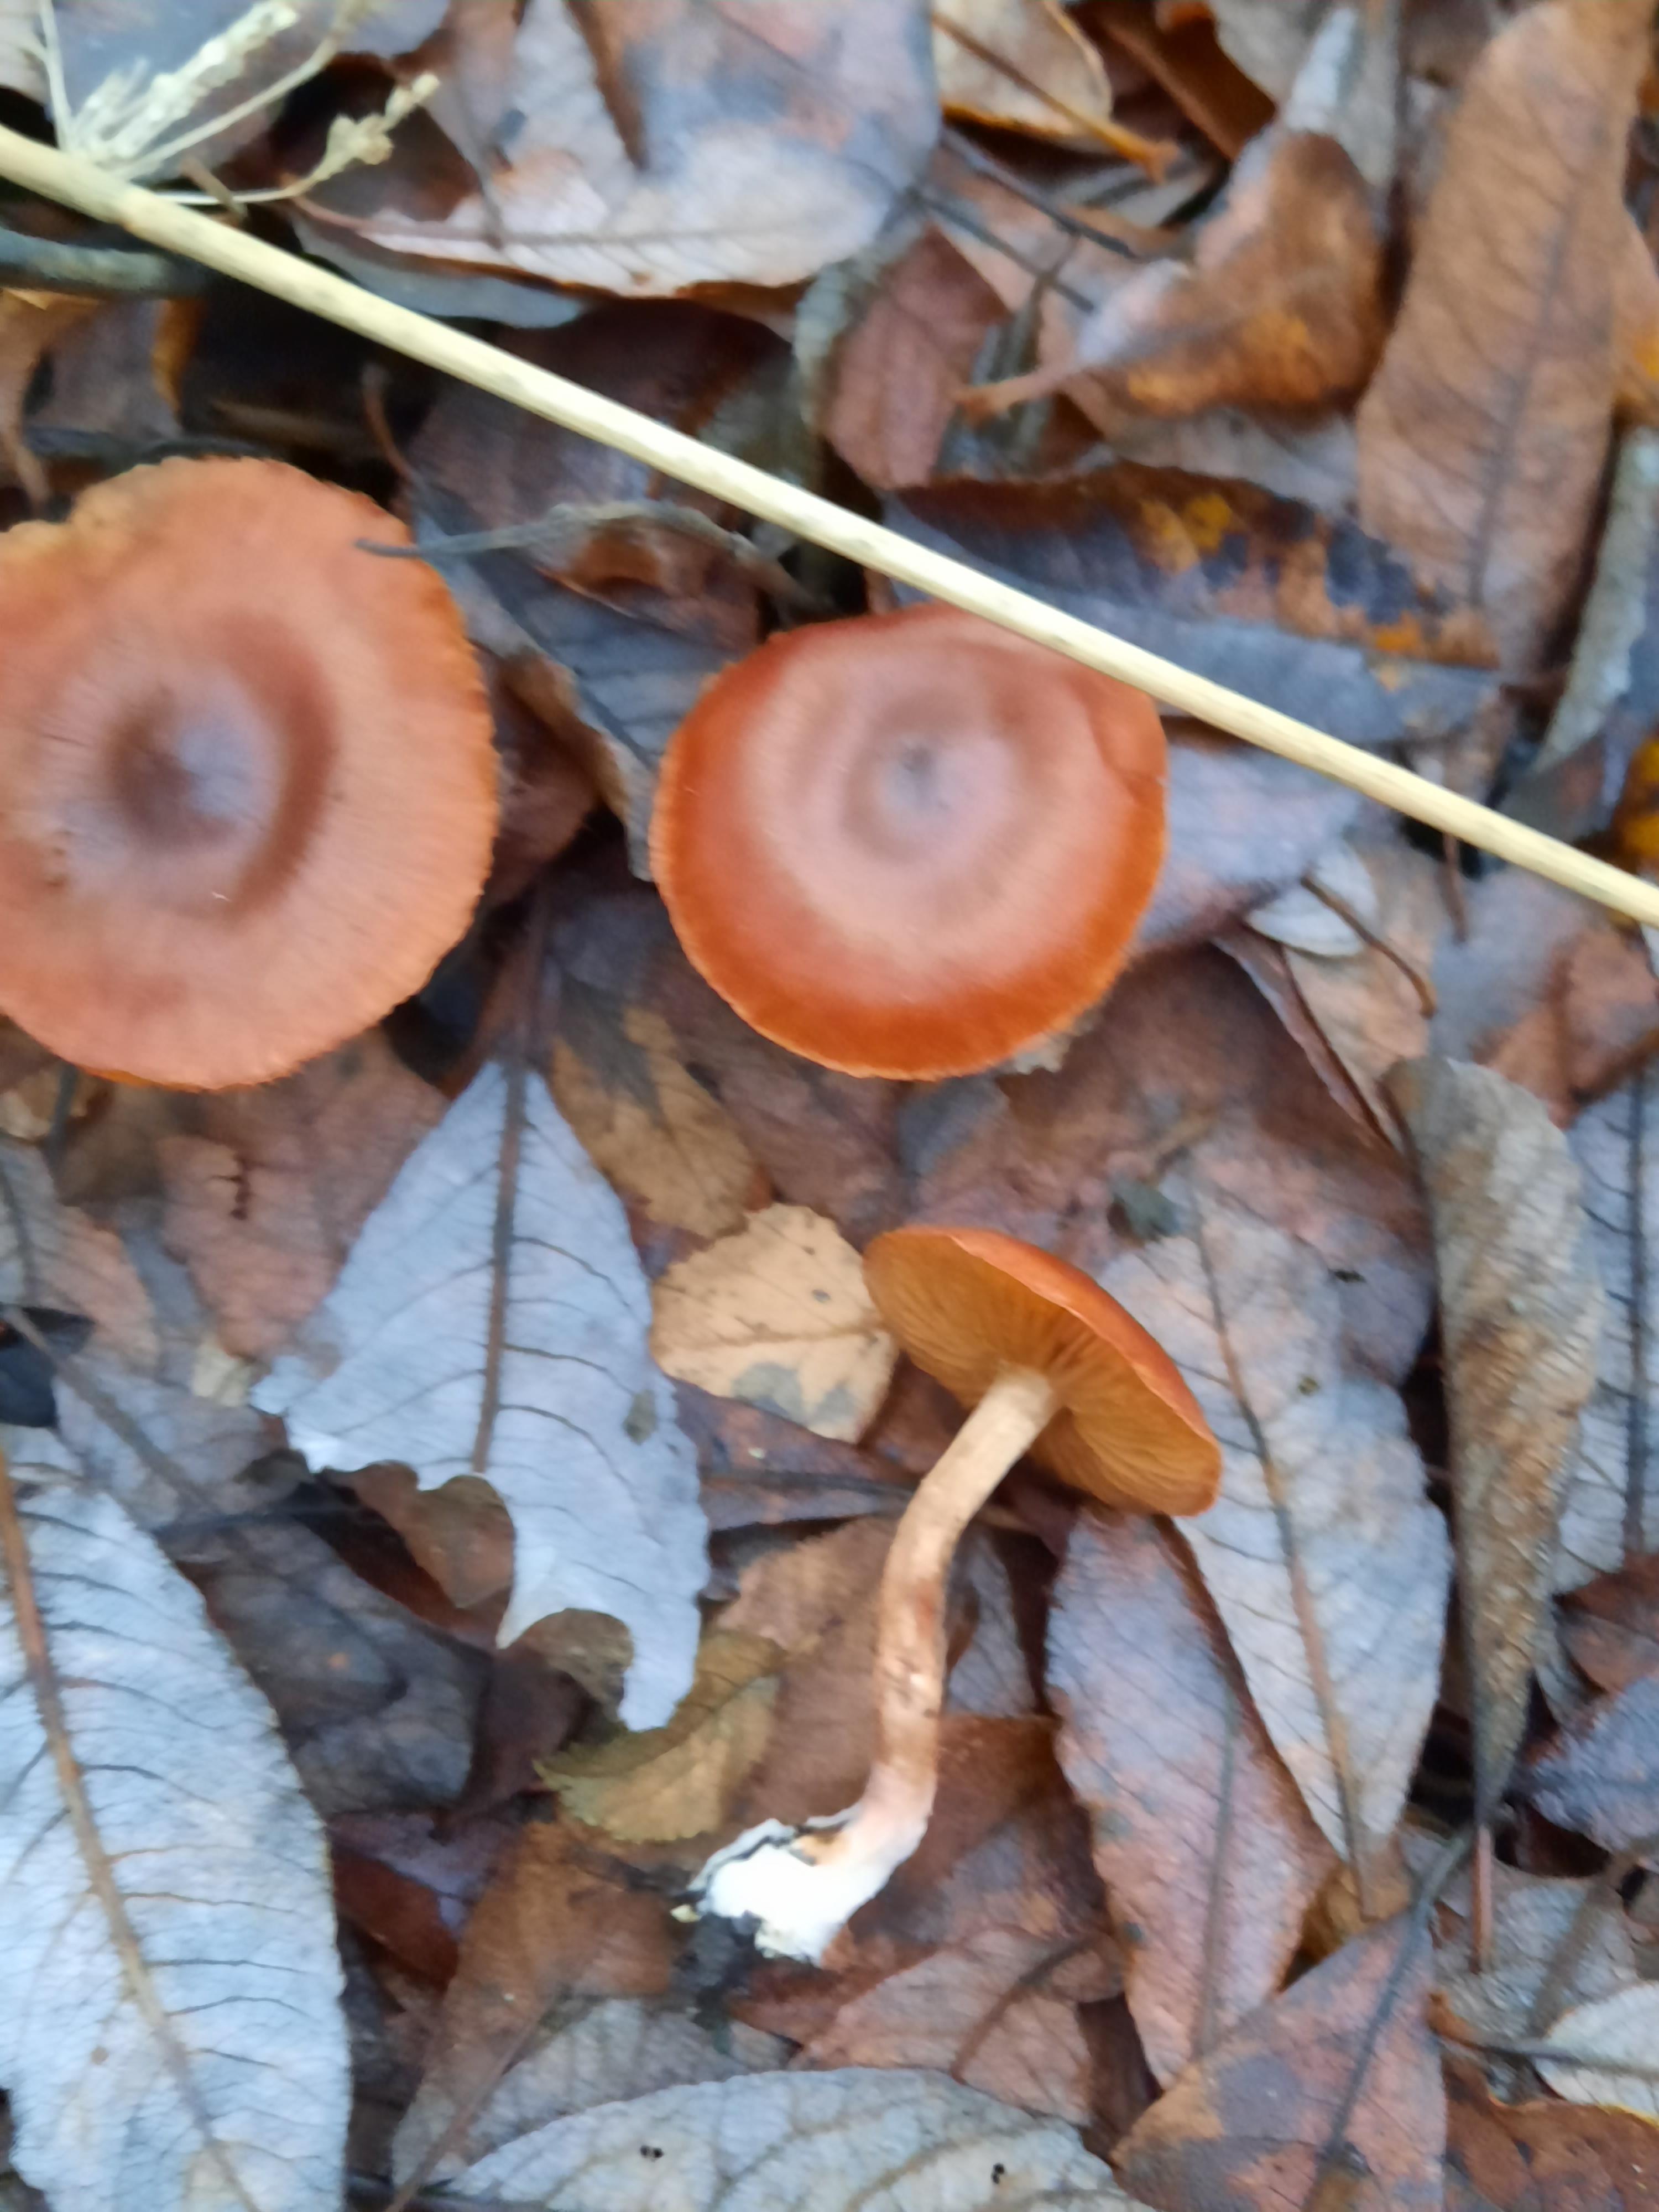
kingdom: Fungi
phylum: Basidiomycota
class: Agaricomycetes
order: Agaricales
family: Cortinariaceae
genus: Cortinarius
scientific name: Cortinarius uliginosus
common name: mose-slørhat
